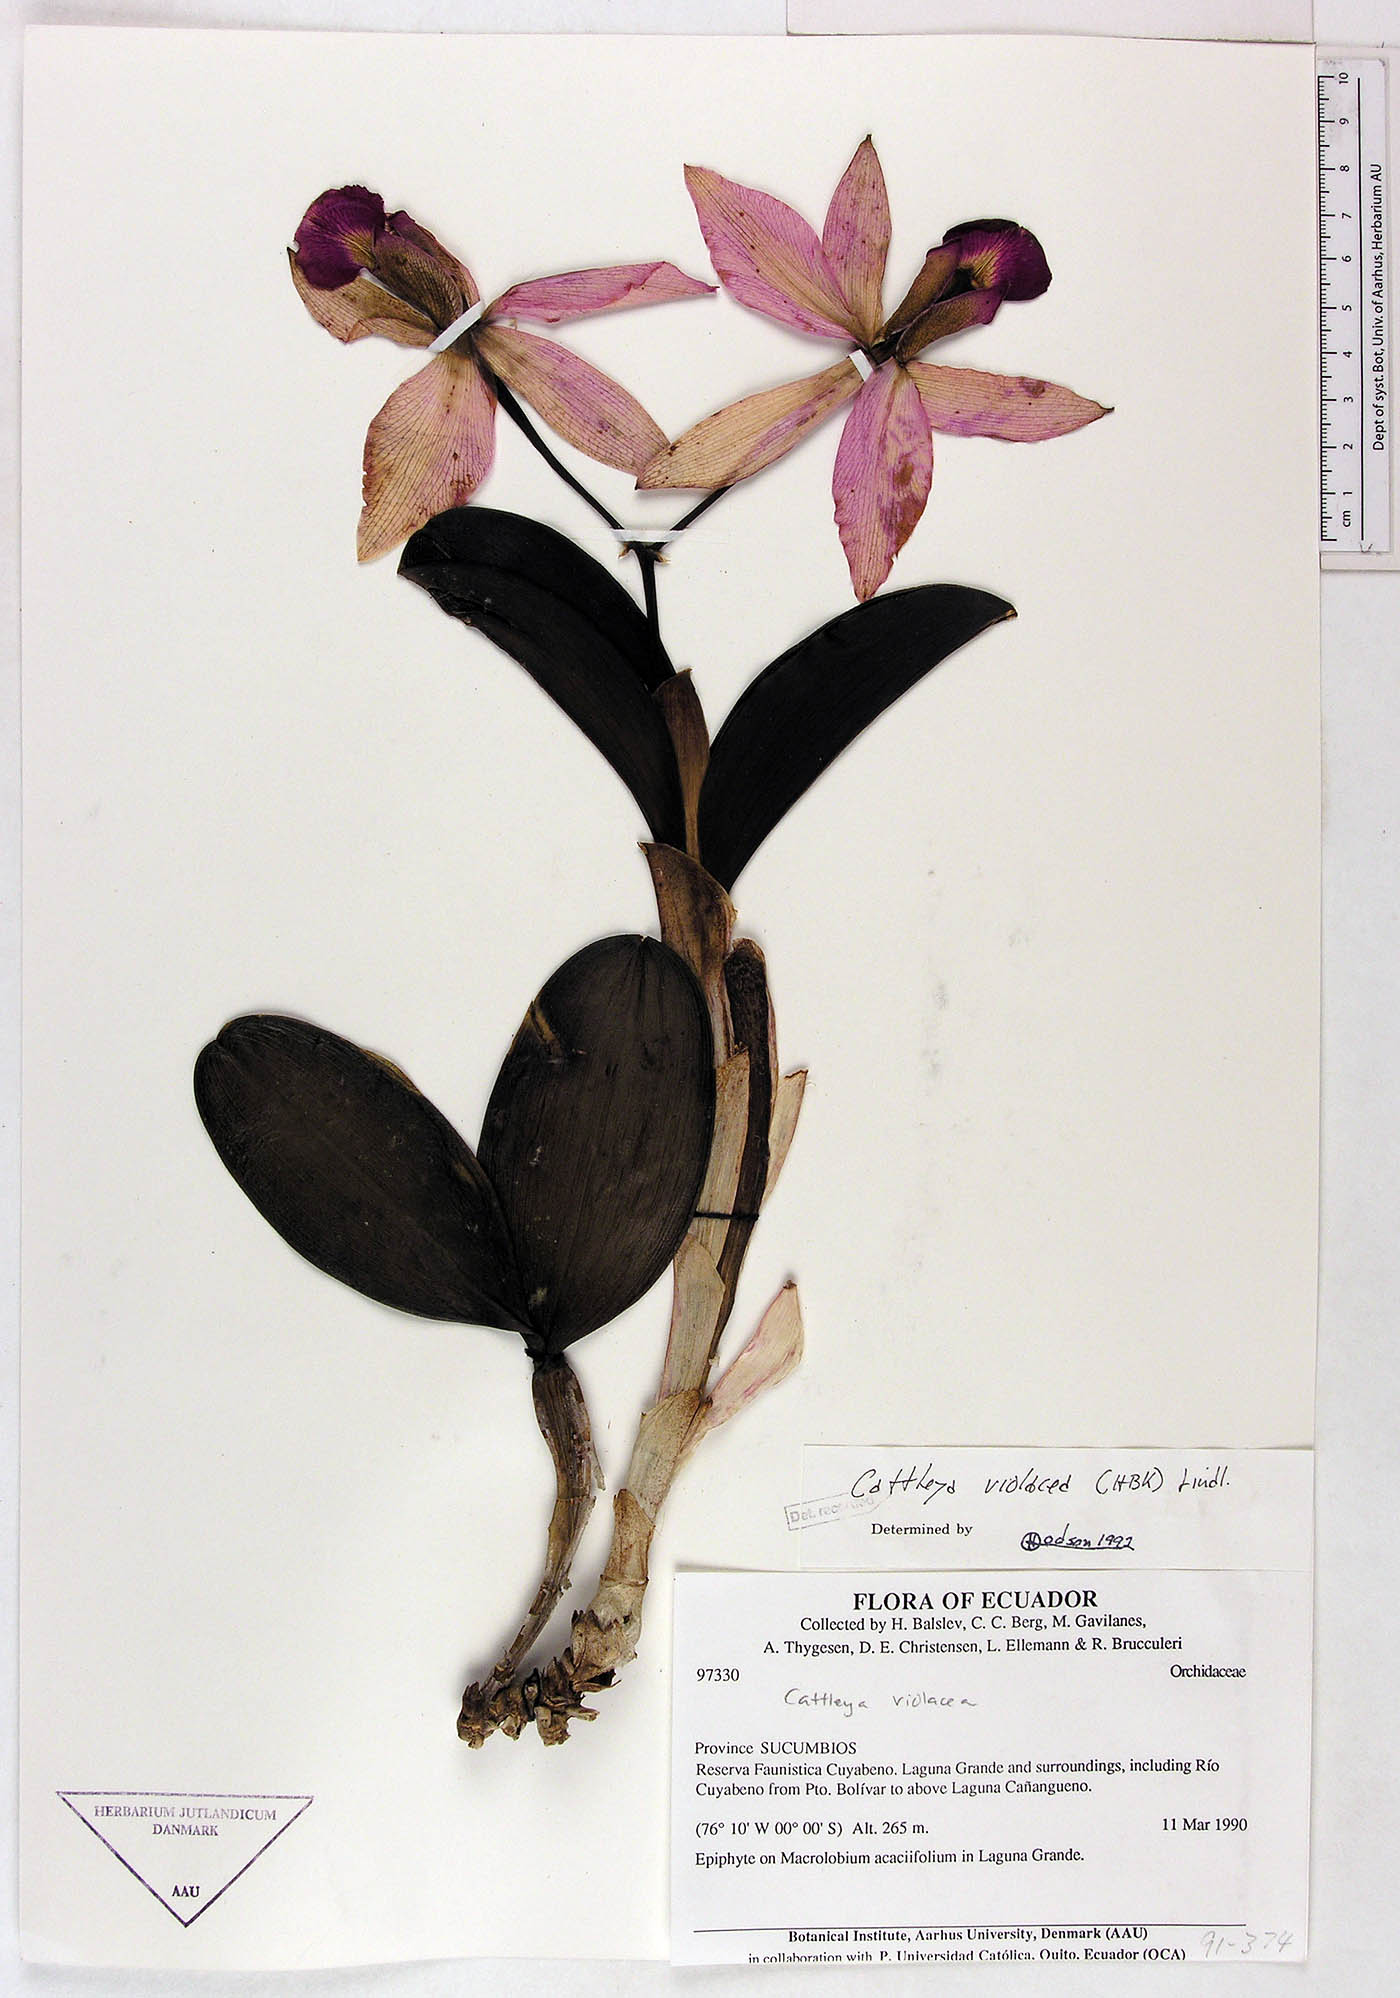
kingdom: Plantae
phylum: Tracheophyta
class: Liliopsida
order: Asparagales
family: Orchidaceae
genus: Cattleya
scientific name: Cattleya violacea
